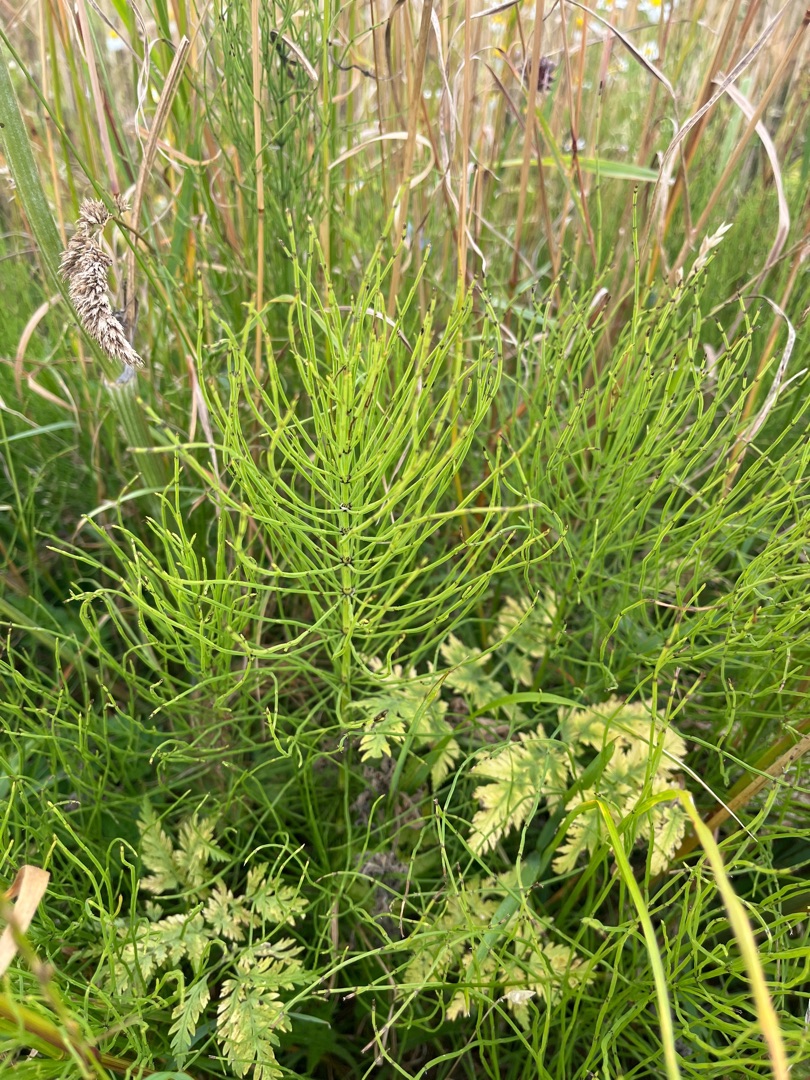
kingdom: Plantae
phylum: Tracheophyta
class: Polypodiopsida
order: Equisetales
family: Equisetaceae
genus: Equisetum
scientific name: Equisetum
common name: Padderokslægten
